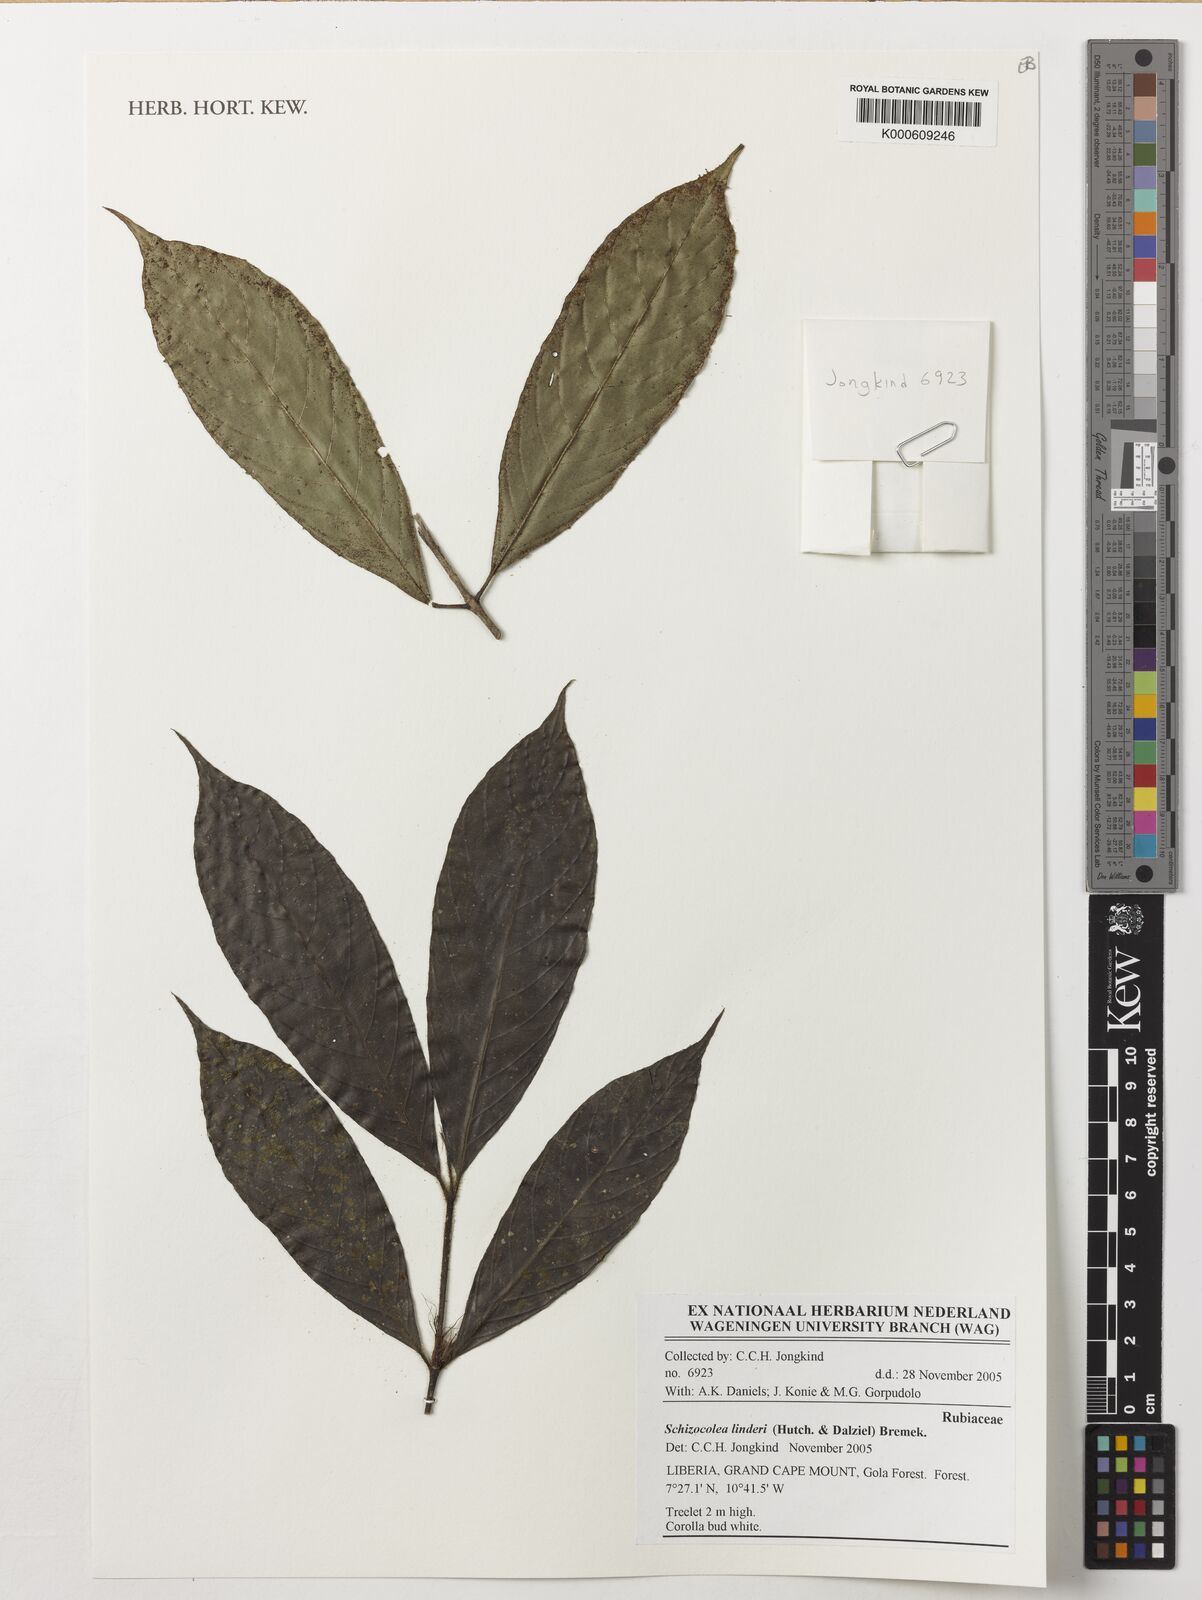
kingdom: Plantae
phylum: Tracheophyta
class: Magnoliopsida
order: Gentianales
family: Rubiaceae
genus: Schizocolea
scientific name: Schizocolea linderi
